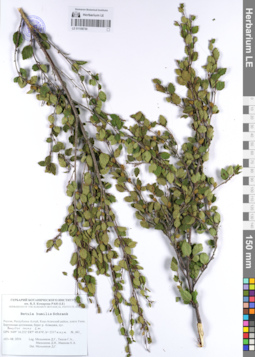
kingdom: Plantae
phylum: Tracheophyta
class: Magnoliopsida
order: Fagales
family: Betulaceae
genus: Betula
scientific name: Betula humilis
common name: Shrubby birch
